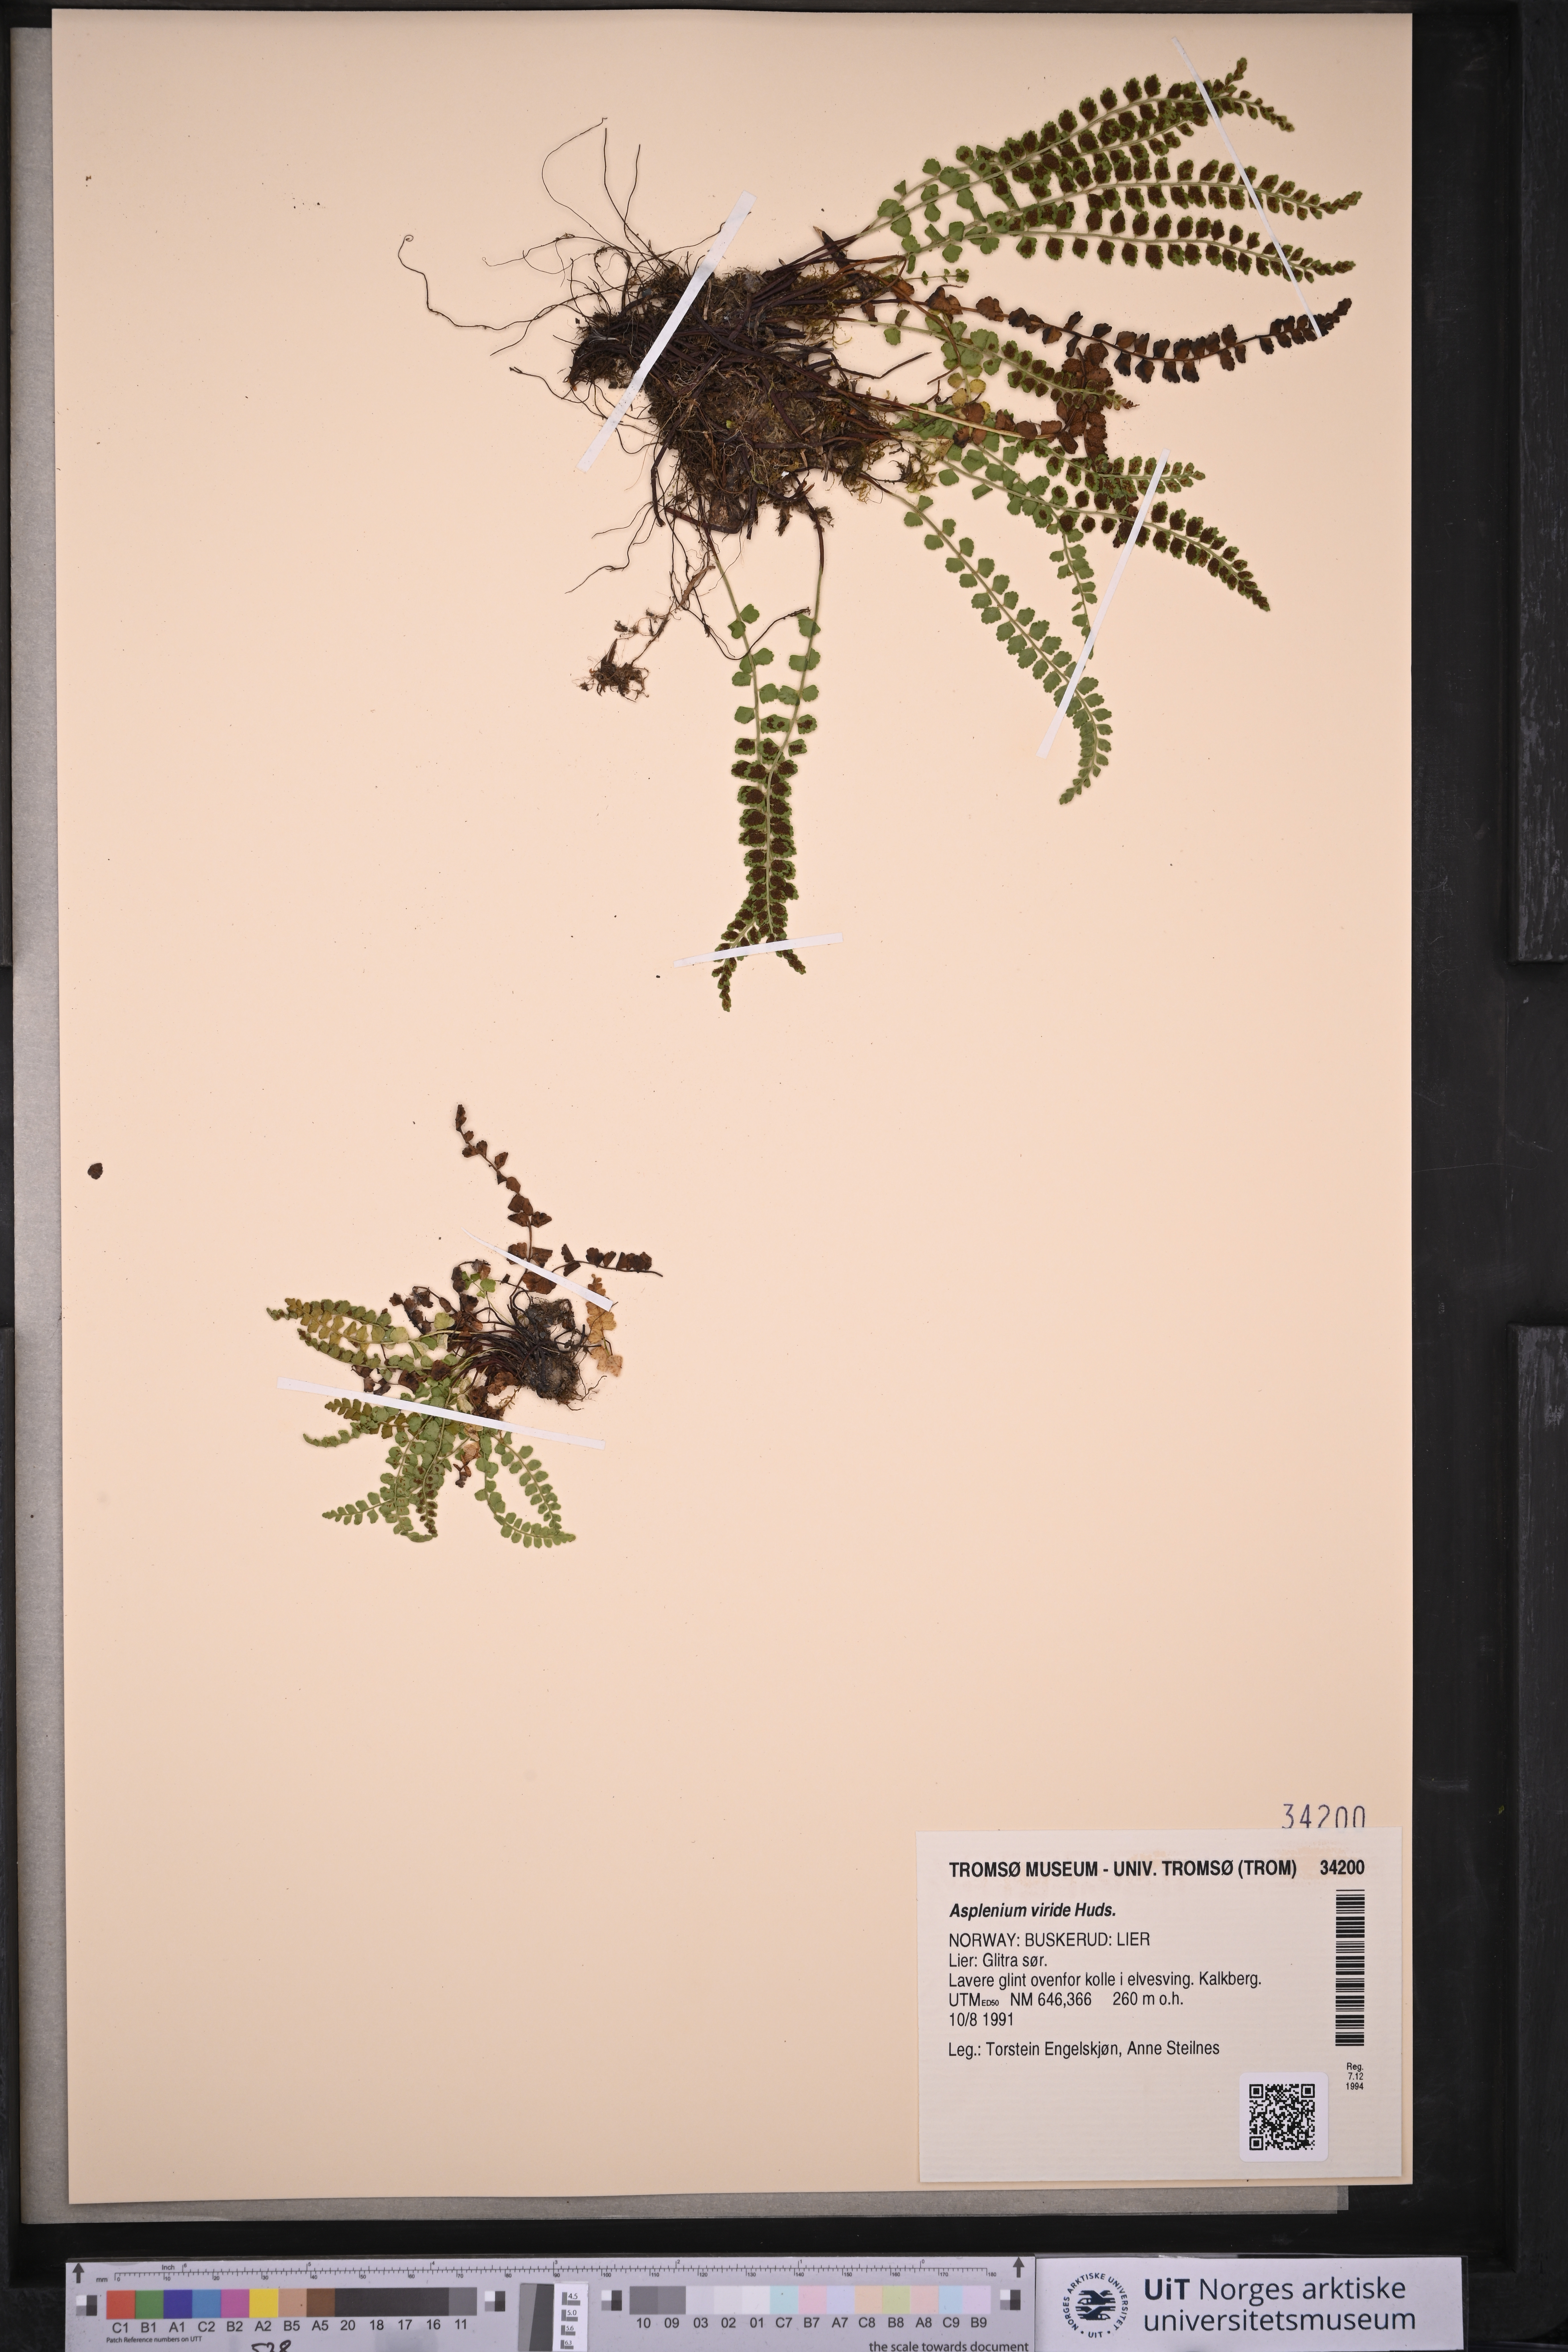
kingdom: Plantae
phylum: Tracheophyta
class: Polypodiopsida
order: Polypodiales
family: Aspleniaceae
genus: Asplenium
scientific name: Asplenium viride
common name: Green spleenwort
